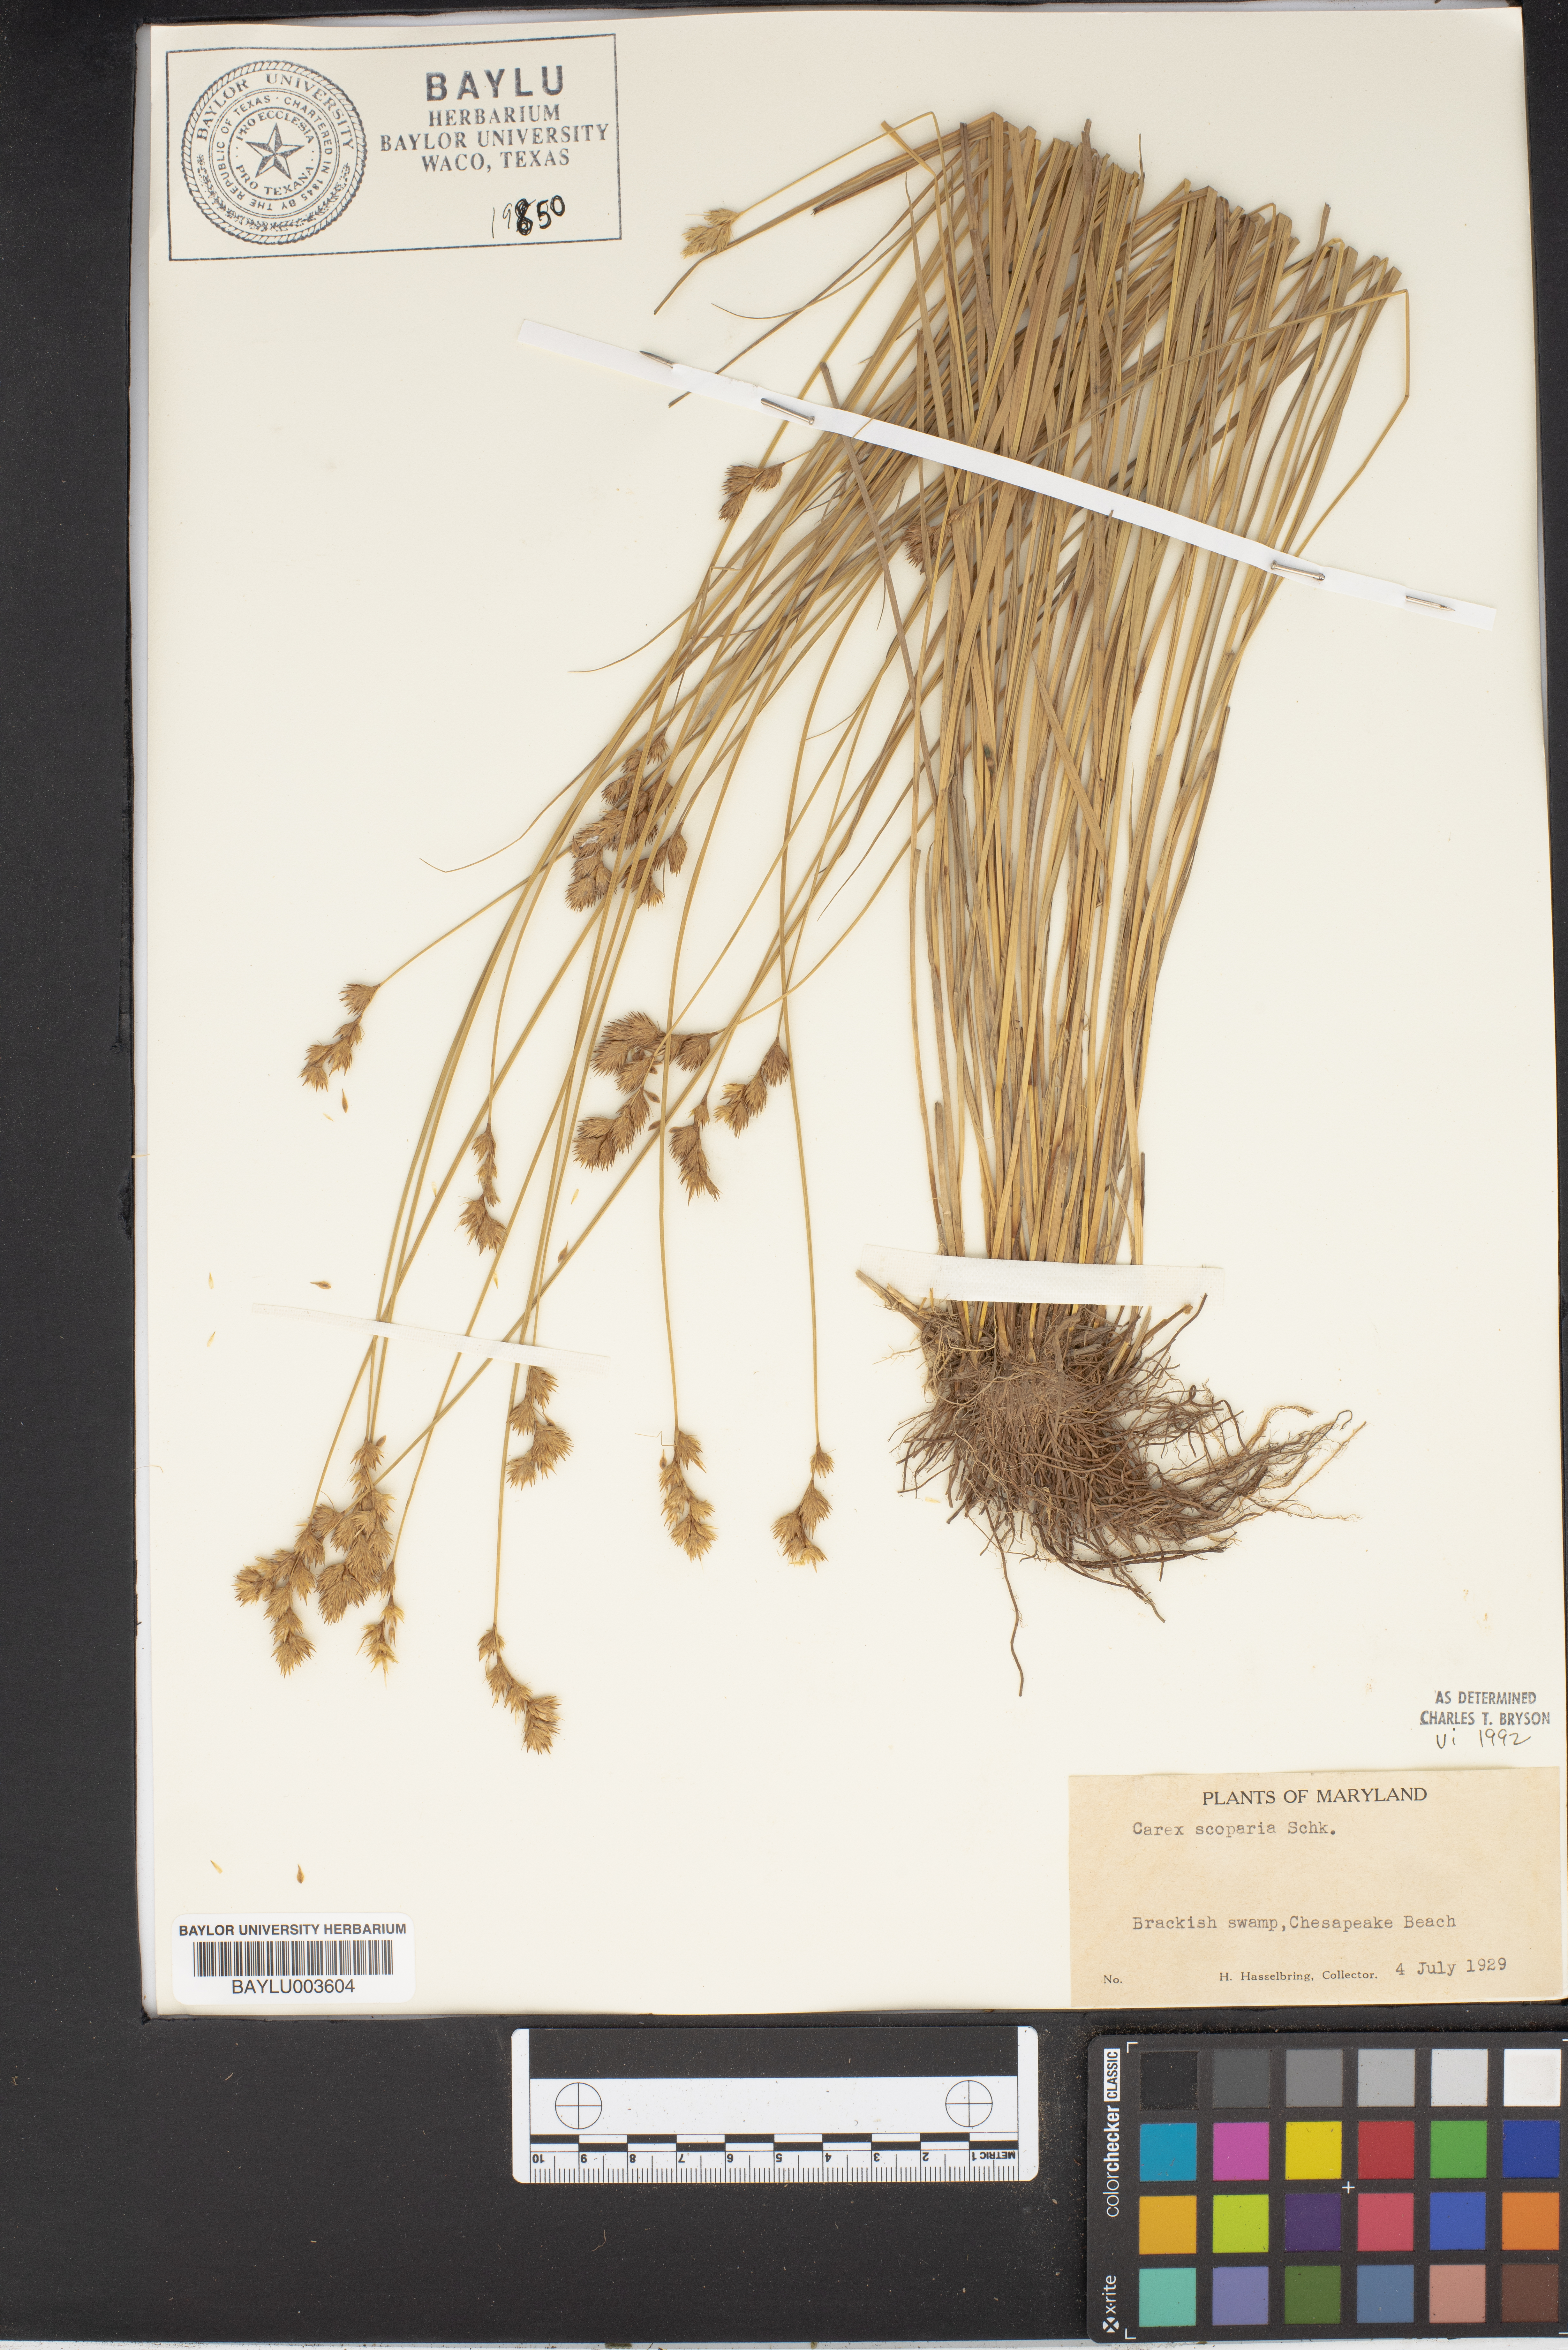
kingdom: Plantae
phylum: Tracheophyta
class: Liliopsida
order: Poales
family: Cyperaceae
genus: Carex
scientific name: Carex scoparia
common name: Broom sedge
